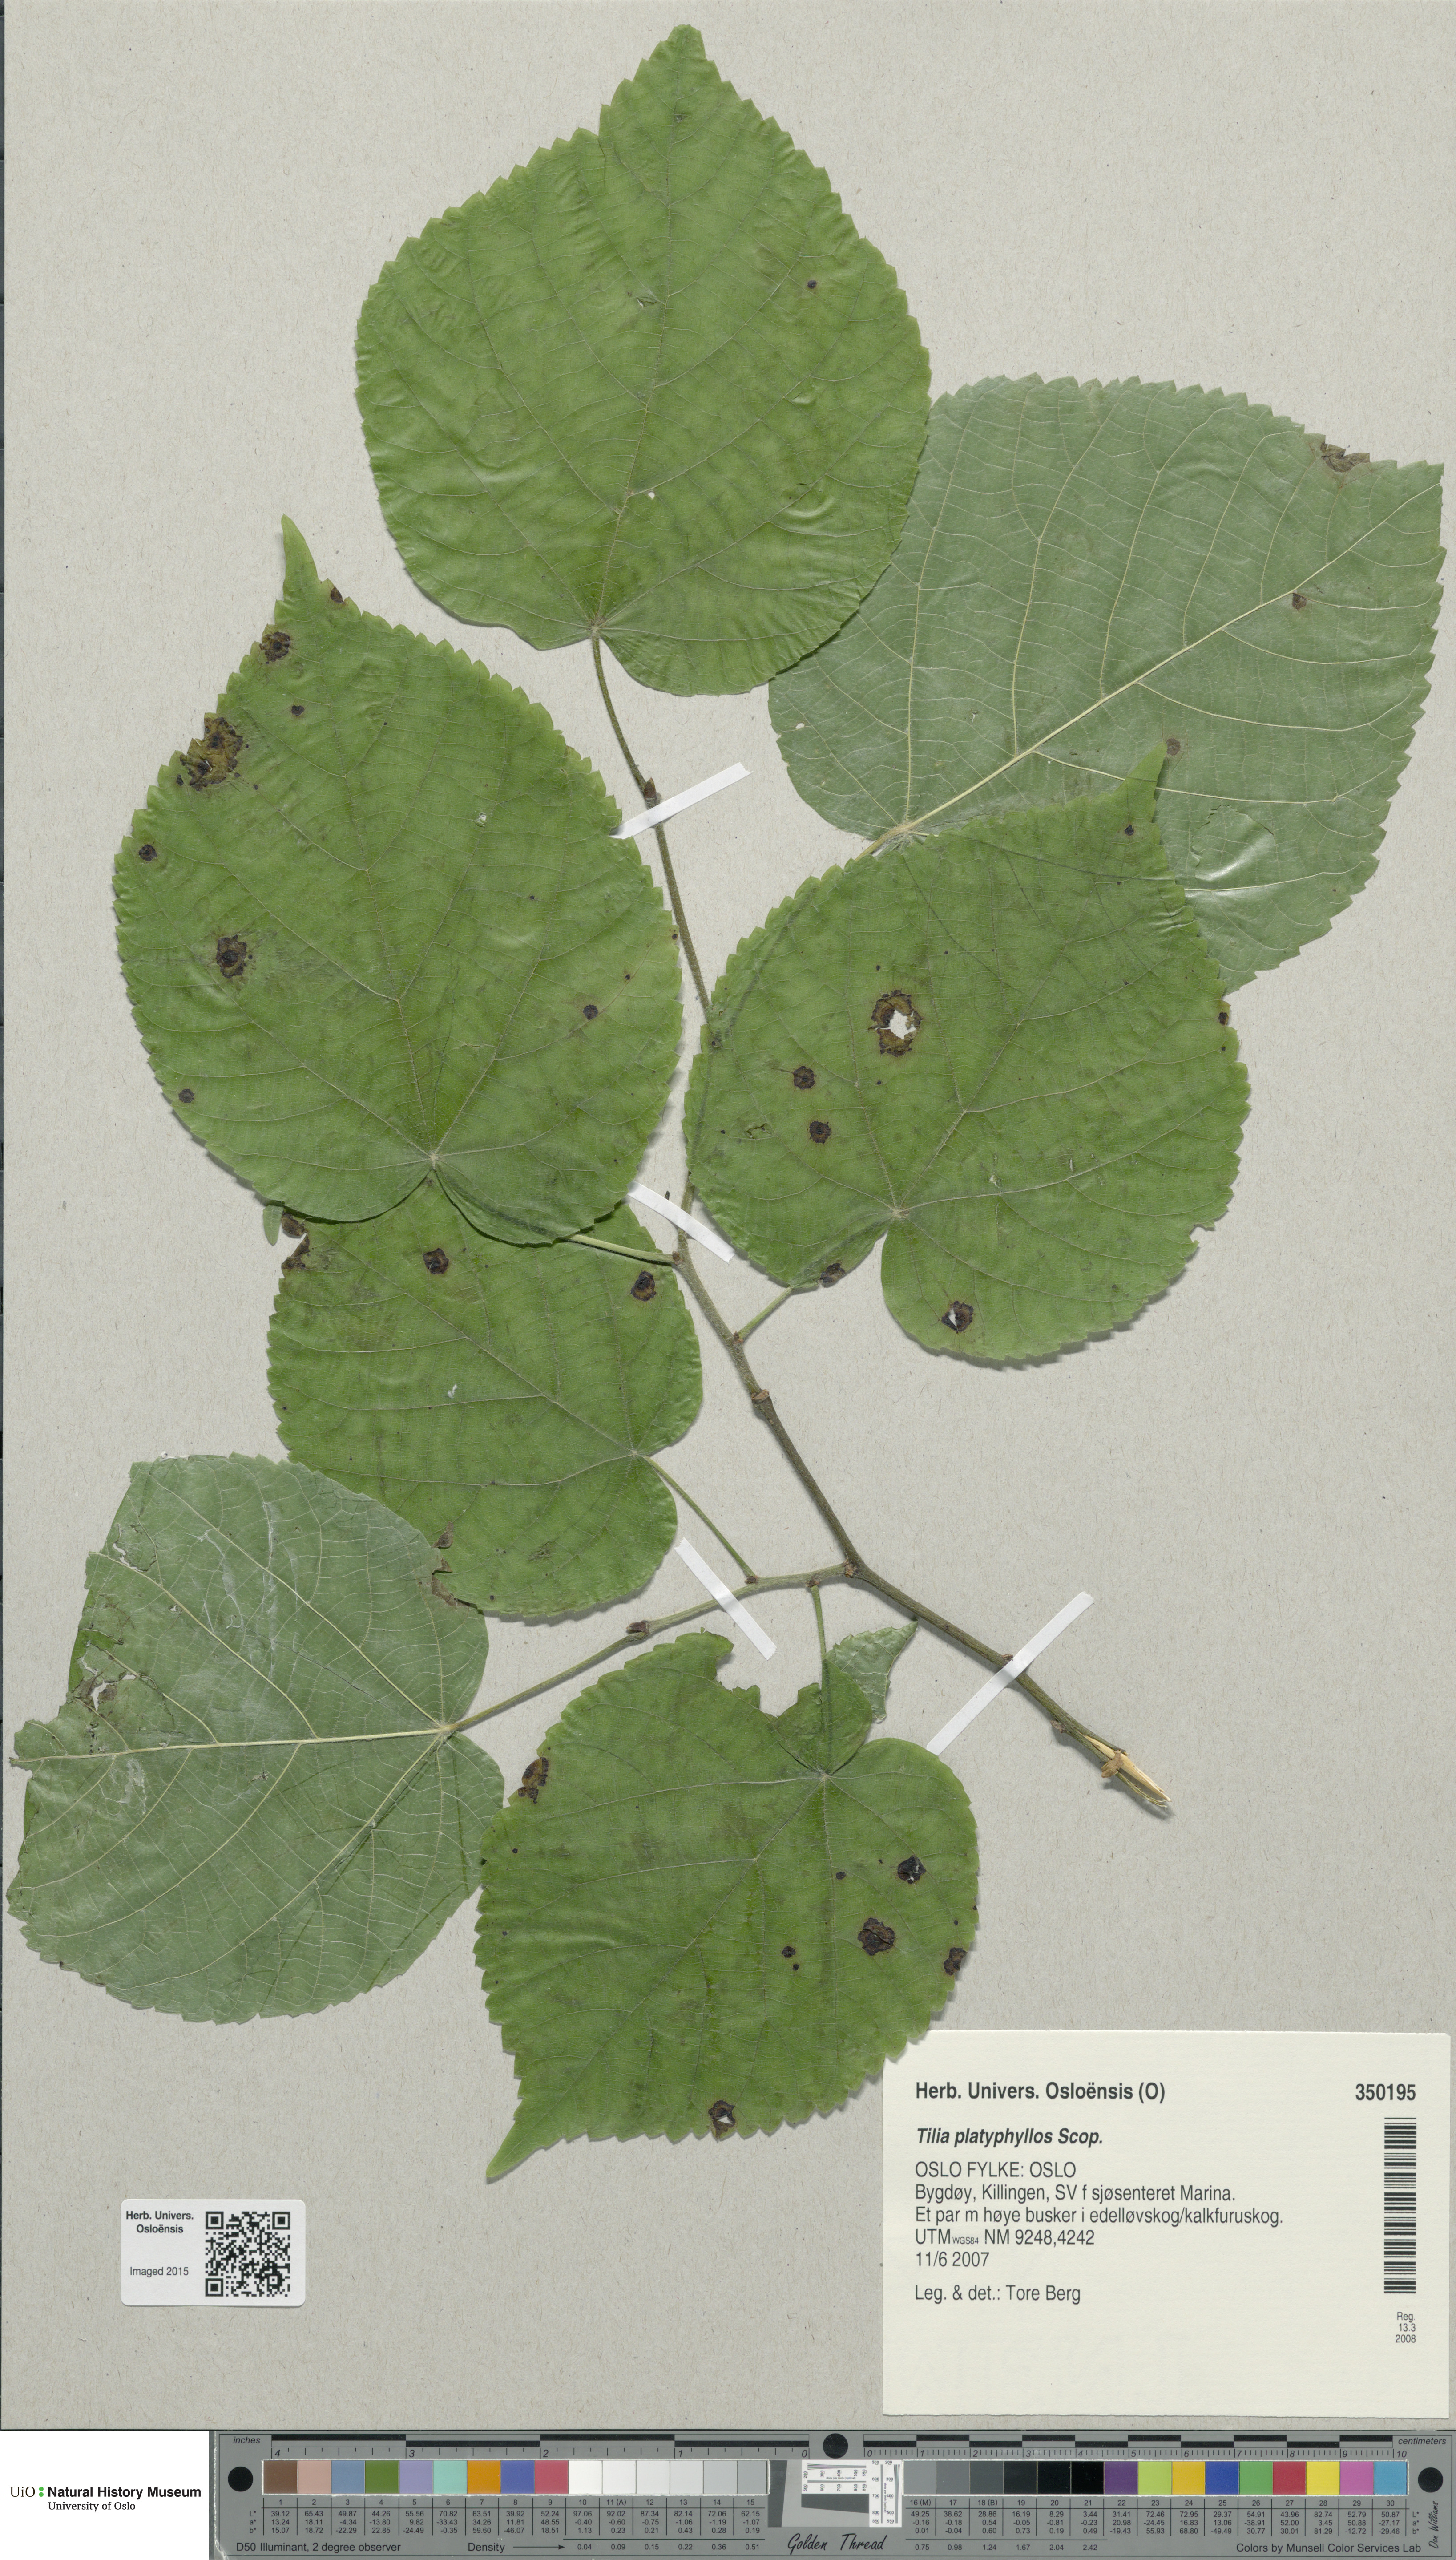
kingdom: Plantae
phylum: Tracheophyta
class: Magnoliopsida
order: Malvales
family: Malvaceae
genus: Tilia
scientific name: Tilia platyphyllos
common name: Large-leaved lime
